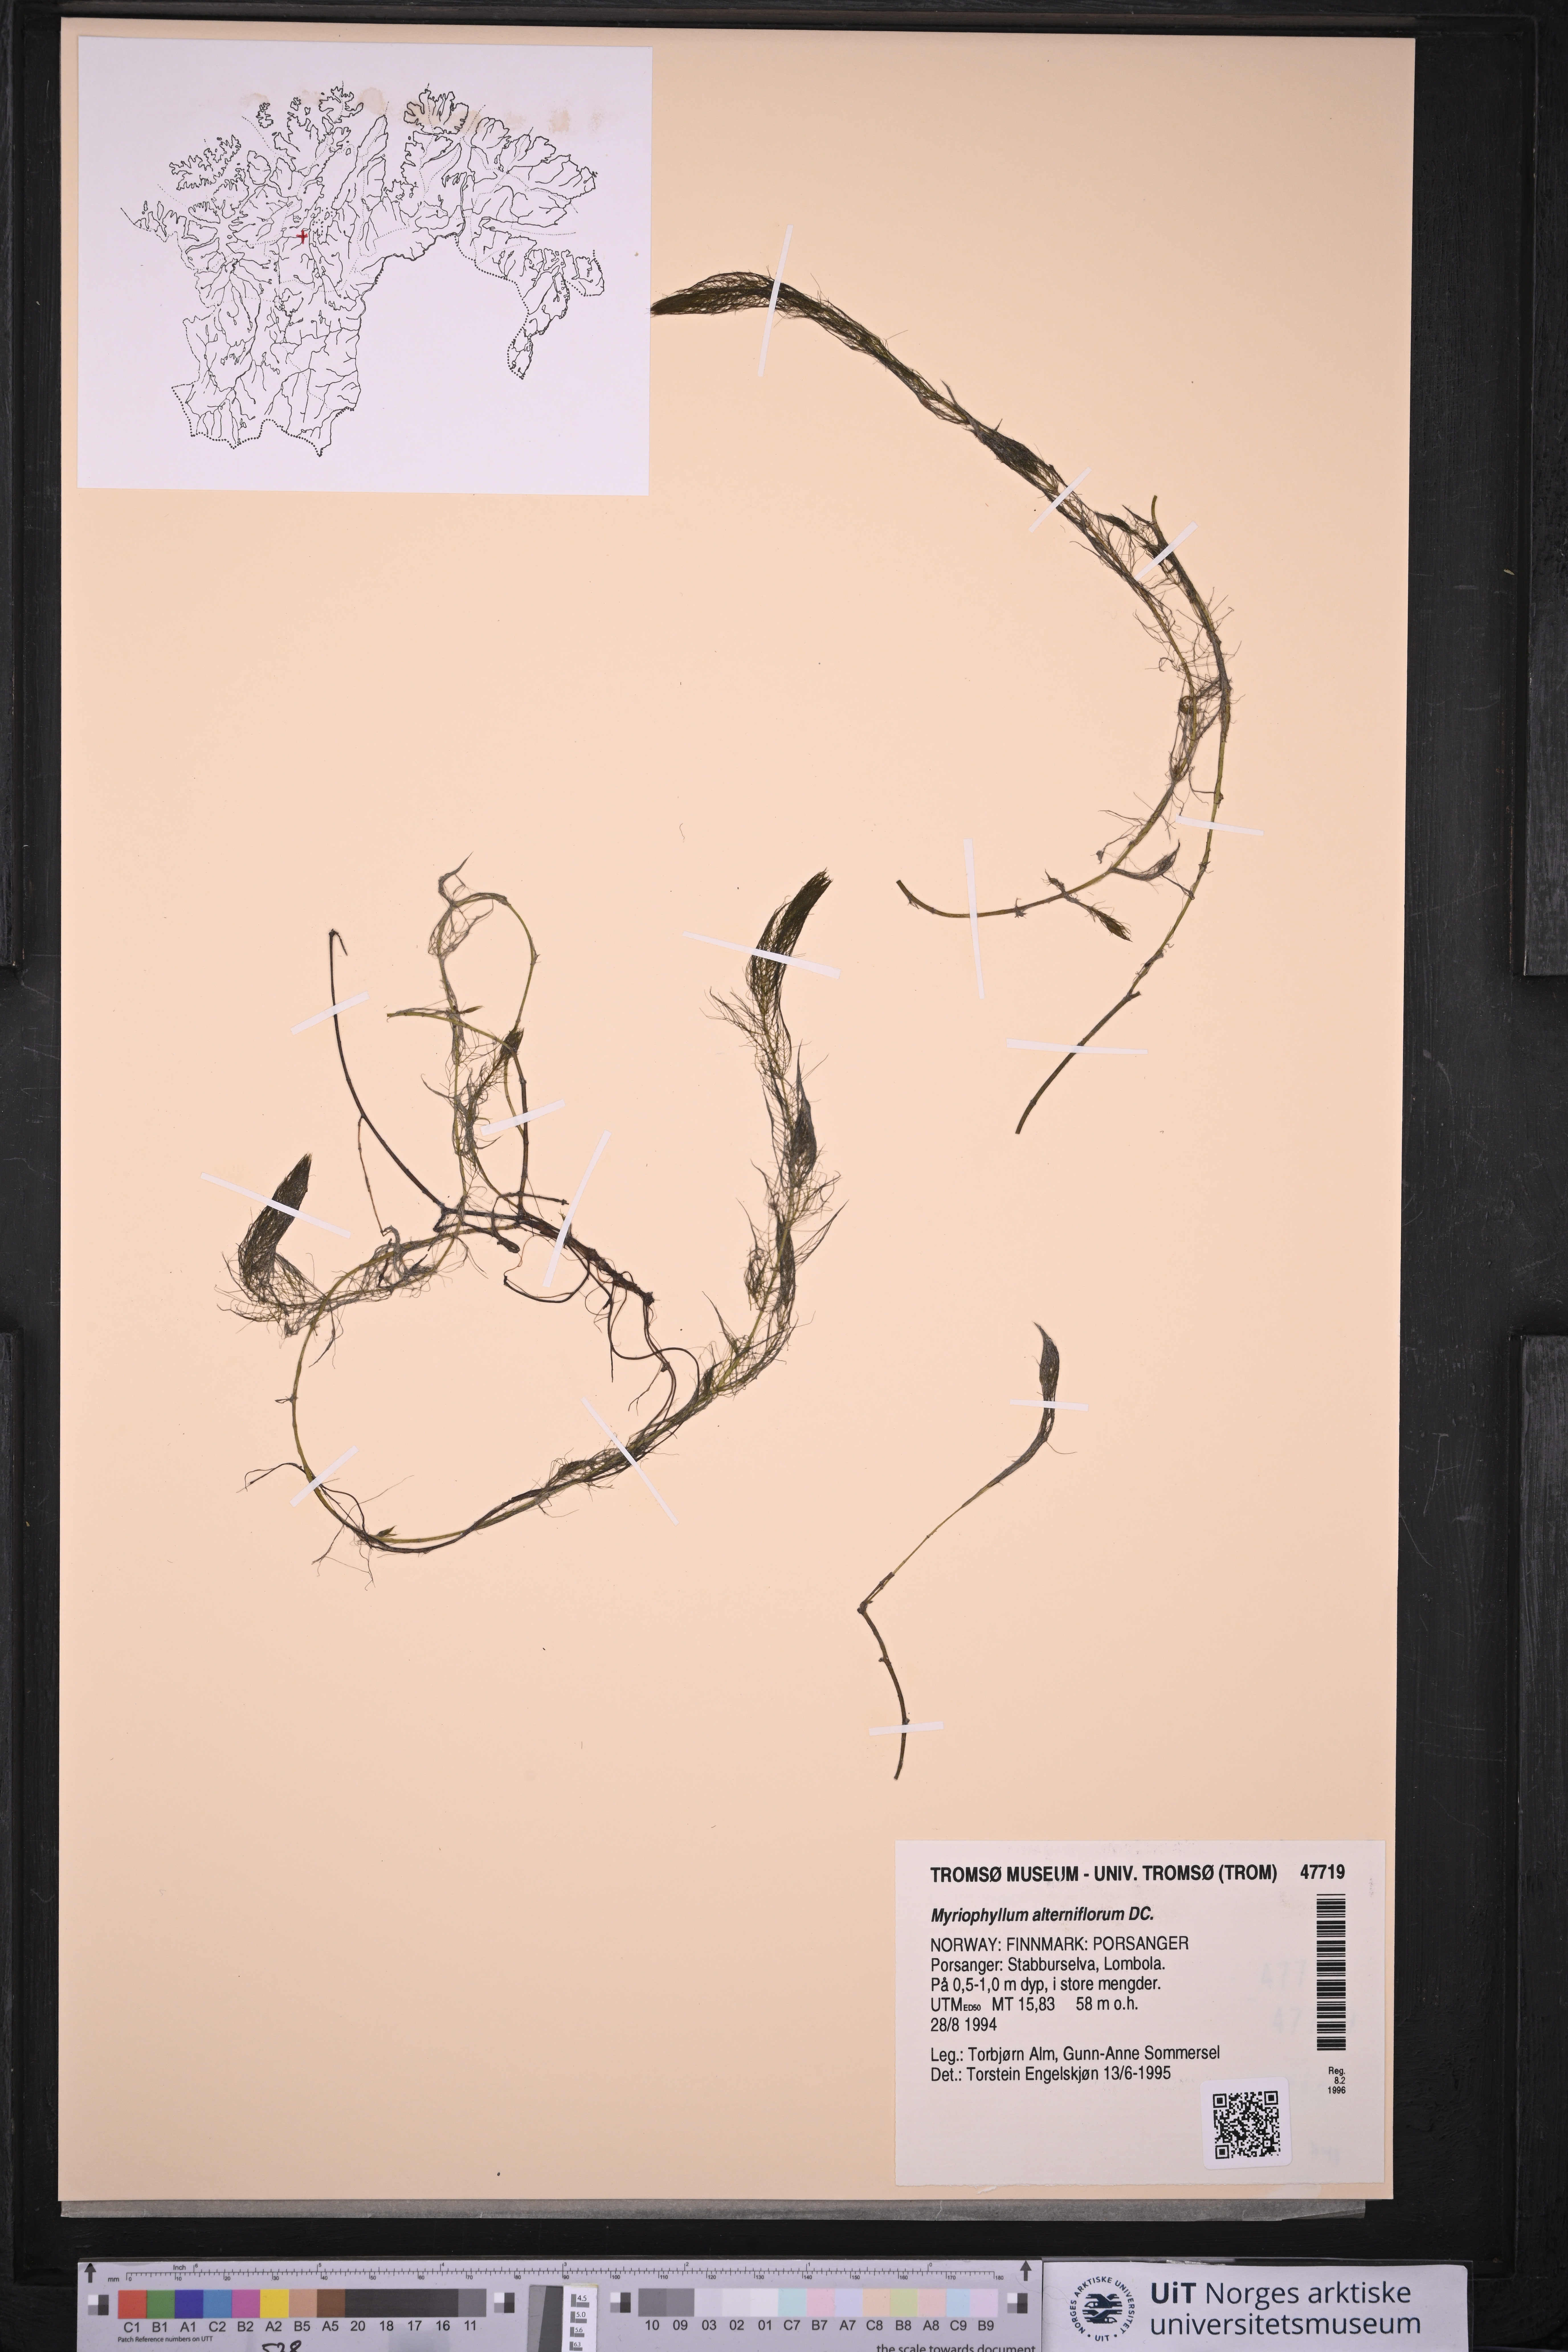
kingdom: Plantae
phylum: Tracheophyta
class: Magnoliopsida
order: Saxifragales
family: Haloragaceae
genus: Myriophyllum
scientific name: Myriophyllum alterniflorum
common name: Alternate water-milfoil
